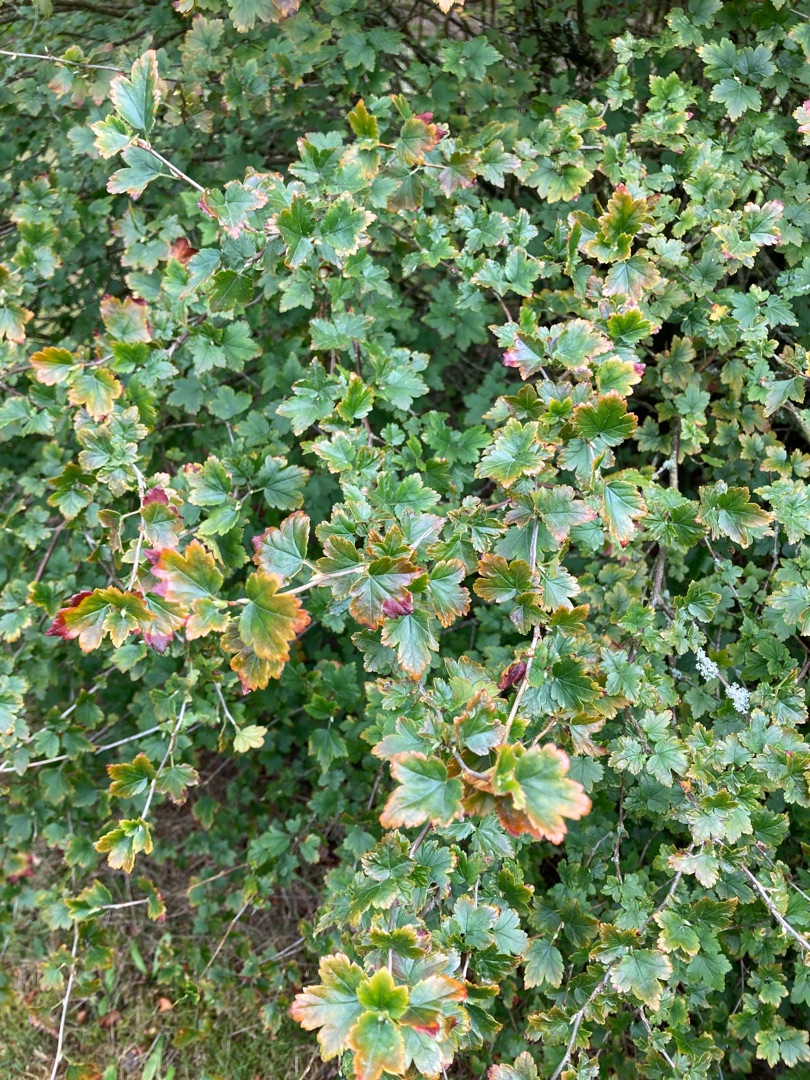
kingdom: Plantae
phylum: Tracheophyta
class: Magnoliopsida
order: Saxifragales
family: Grossulariaceae
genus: Ribes
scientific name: Ribes alpinum
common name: Fjeld-ribs
